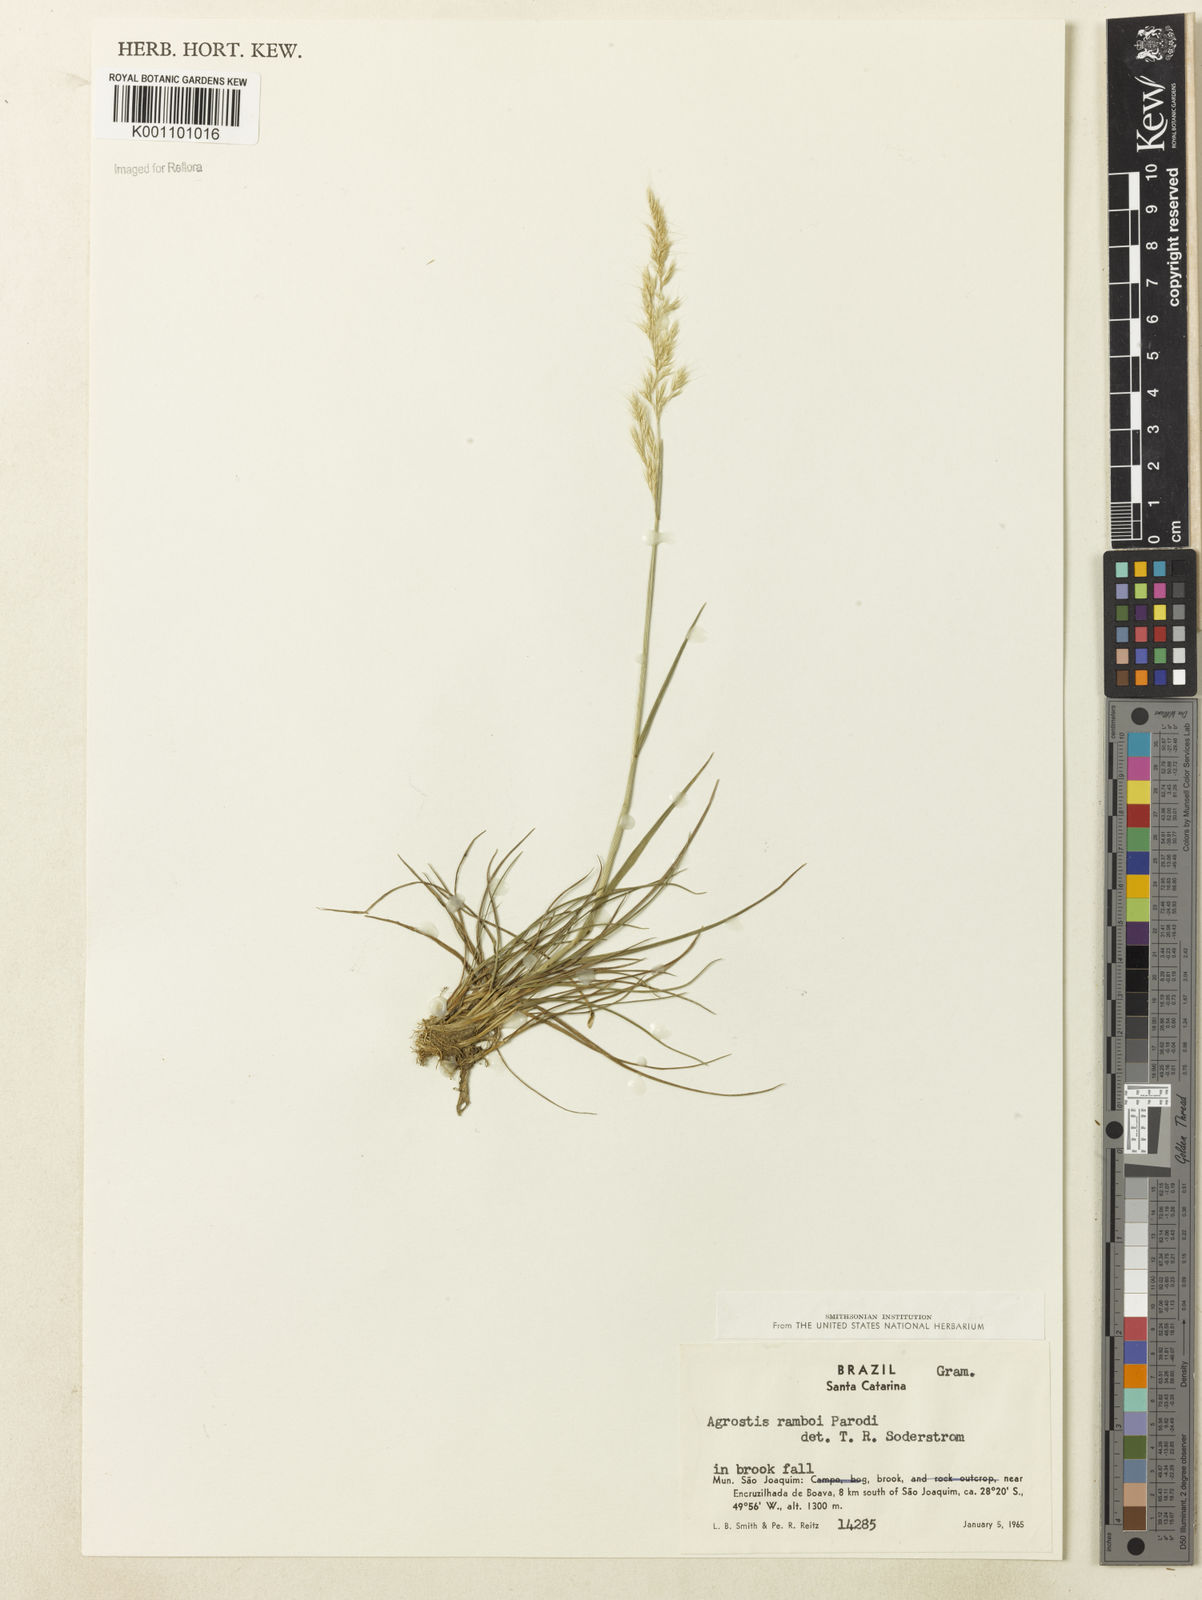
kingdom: Plantae
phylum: Tracheophyta
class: Liliopsida
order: Poales
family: Poaceae
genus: Agrostis
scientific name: Agrostis hygrometrica
